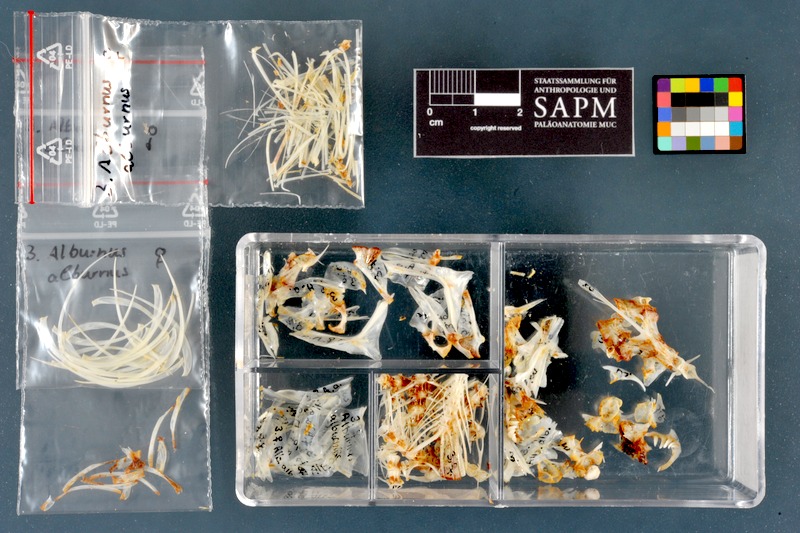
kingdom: Animalia
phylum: Chordata
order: Cypriniformes
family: Cyprinidae
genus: Alburnus
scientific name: Alburnus alburnus
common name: Bleak
